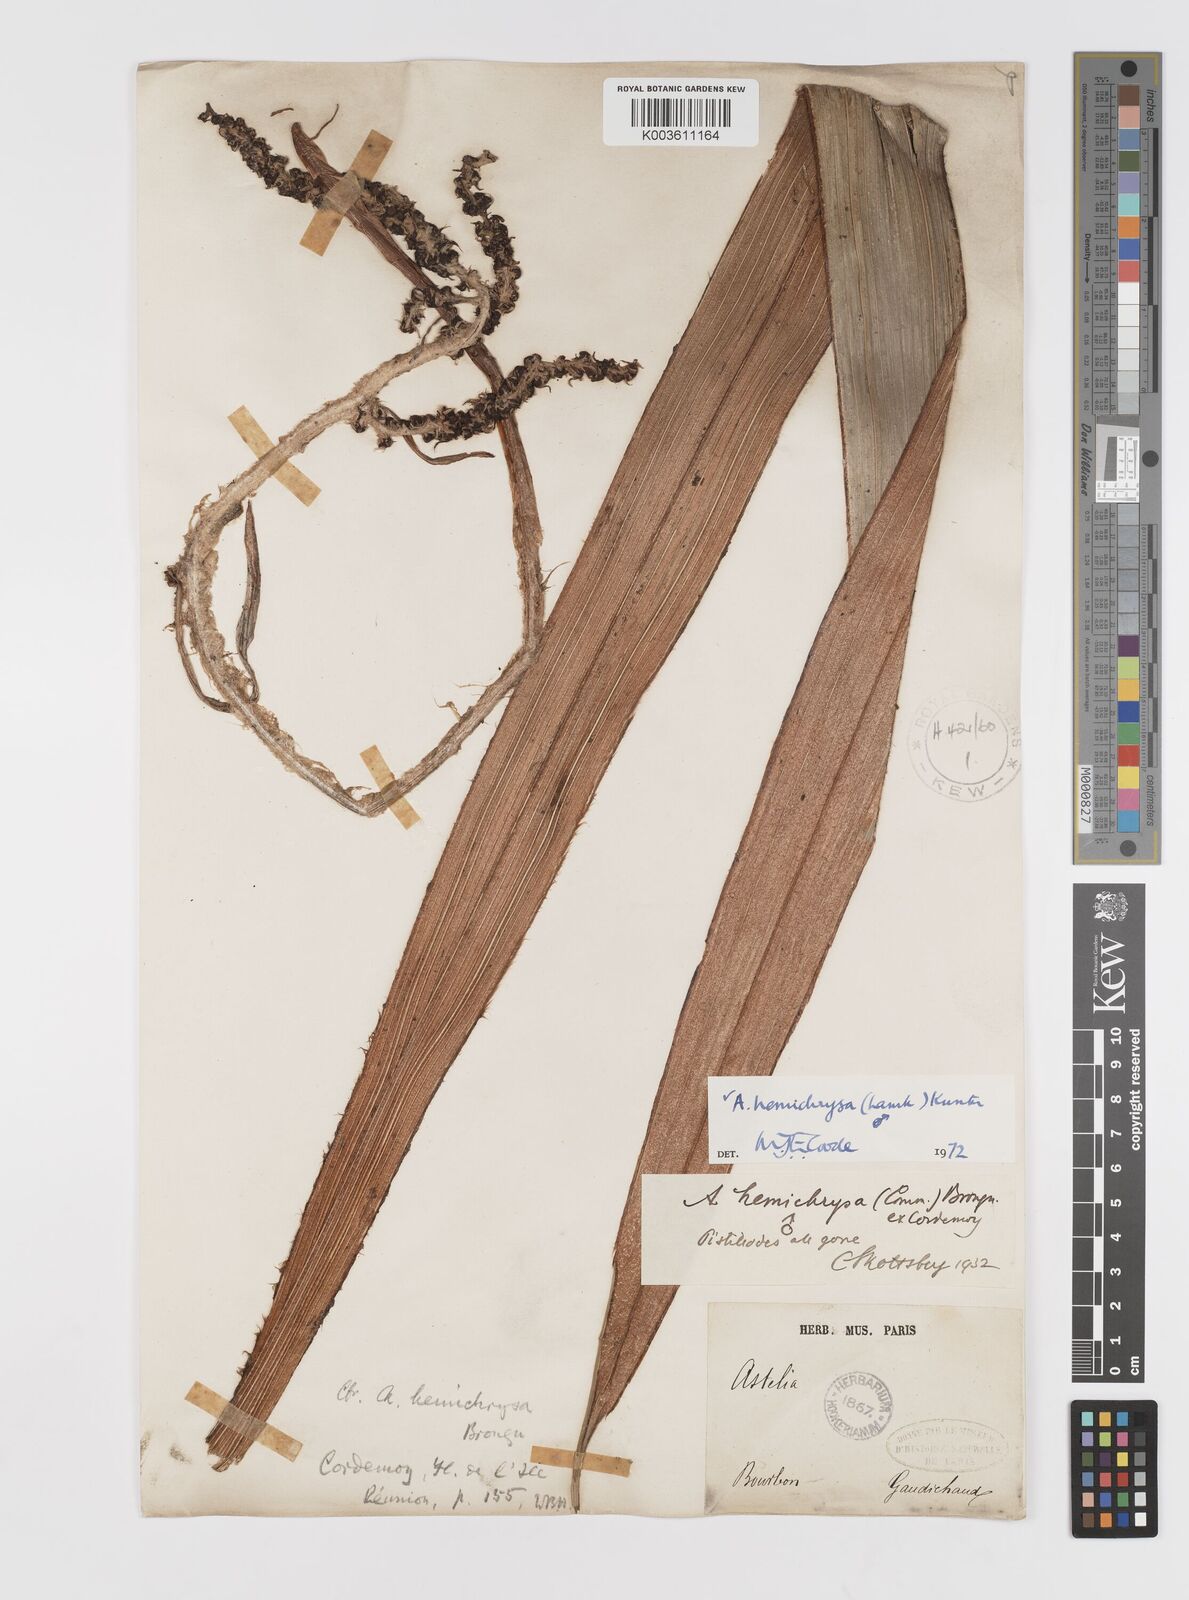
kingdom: Plantae
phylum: Tracheophyta
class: Liliopsida
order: Asparagales
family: Asteliaceae
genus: Astelia
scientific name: Astelia hemichrysa
